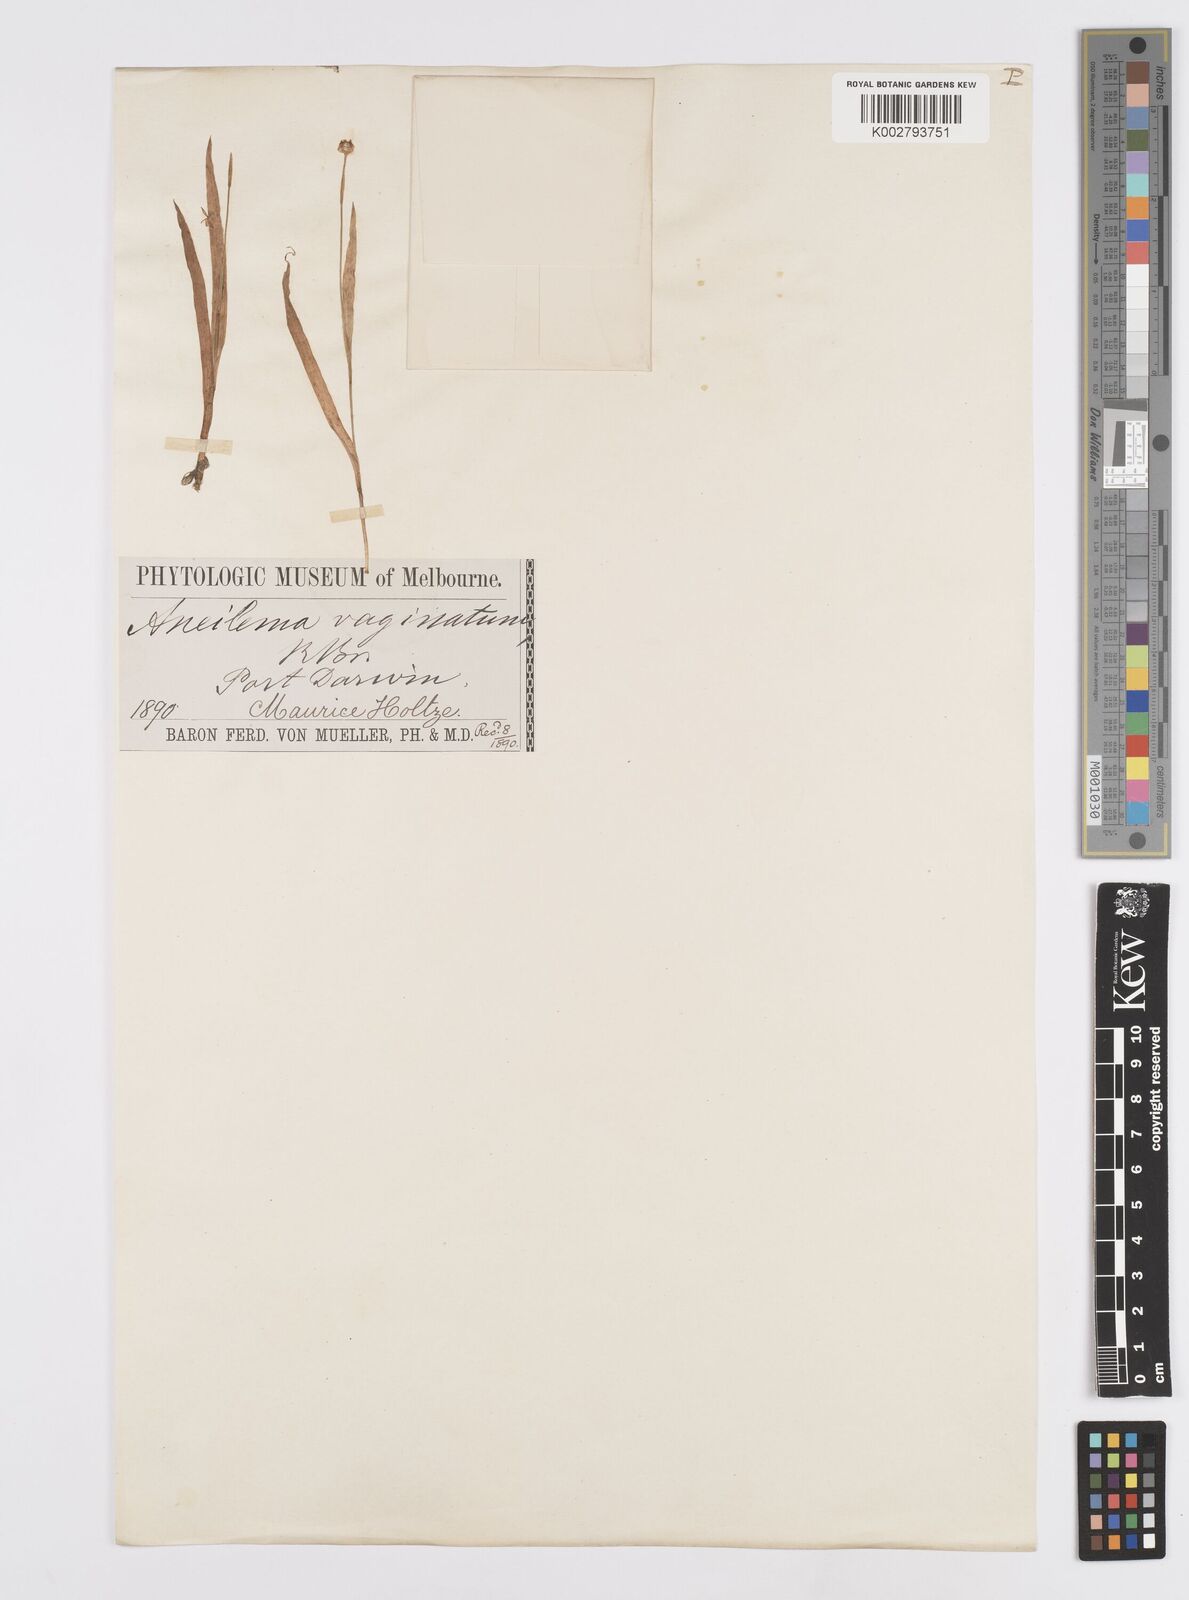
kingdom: Plantae
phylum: Tracheophyta
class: Liliopsida
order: Commelinales
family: Commelinaceae
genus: Murdannia
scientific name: Murdannia vaginata
